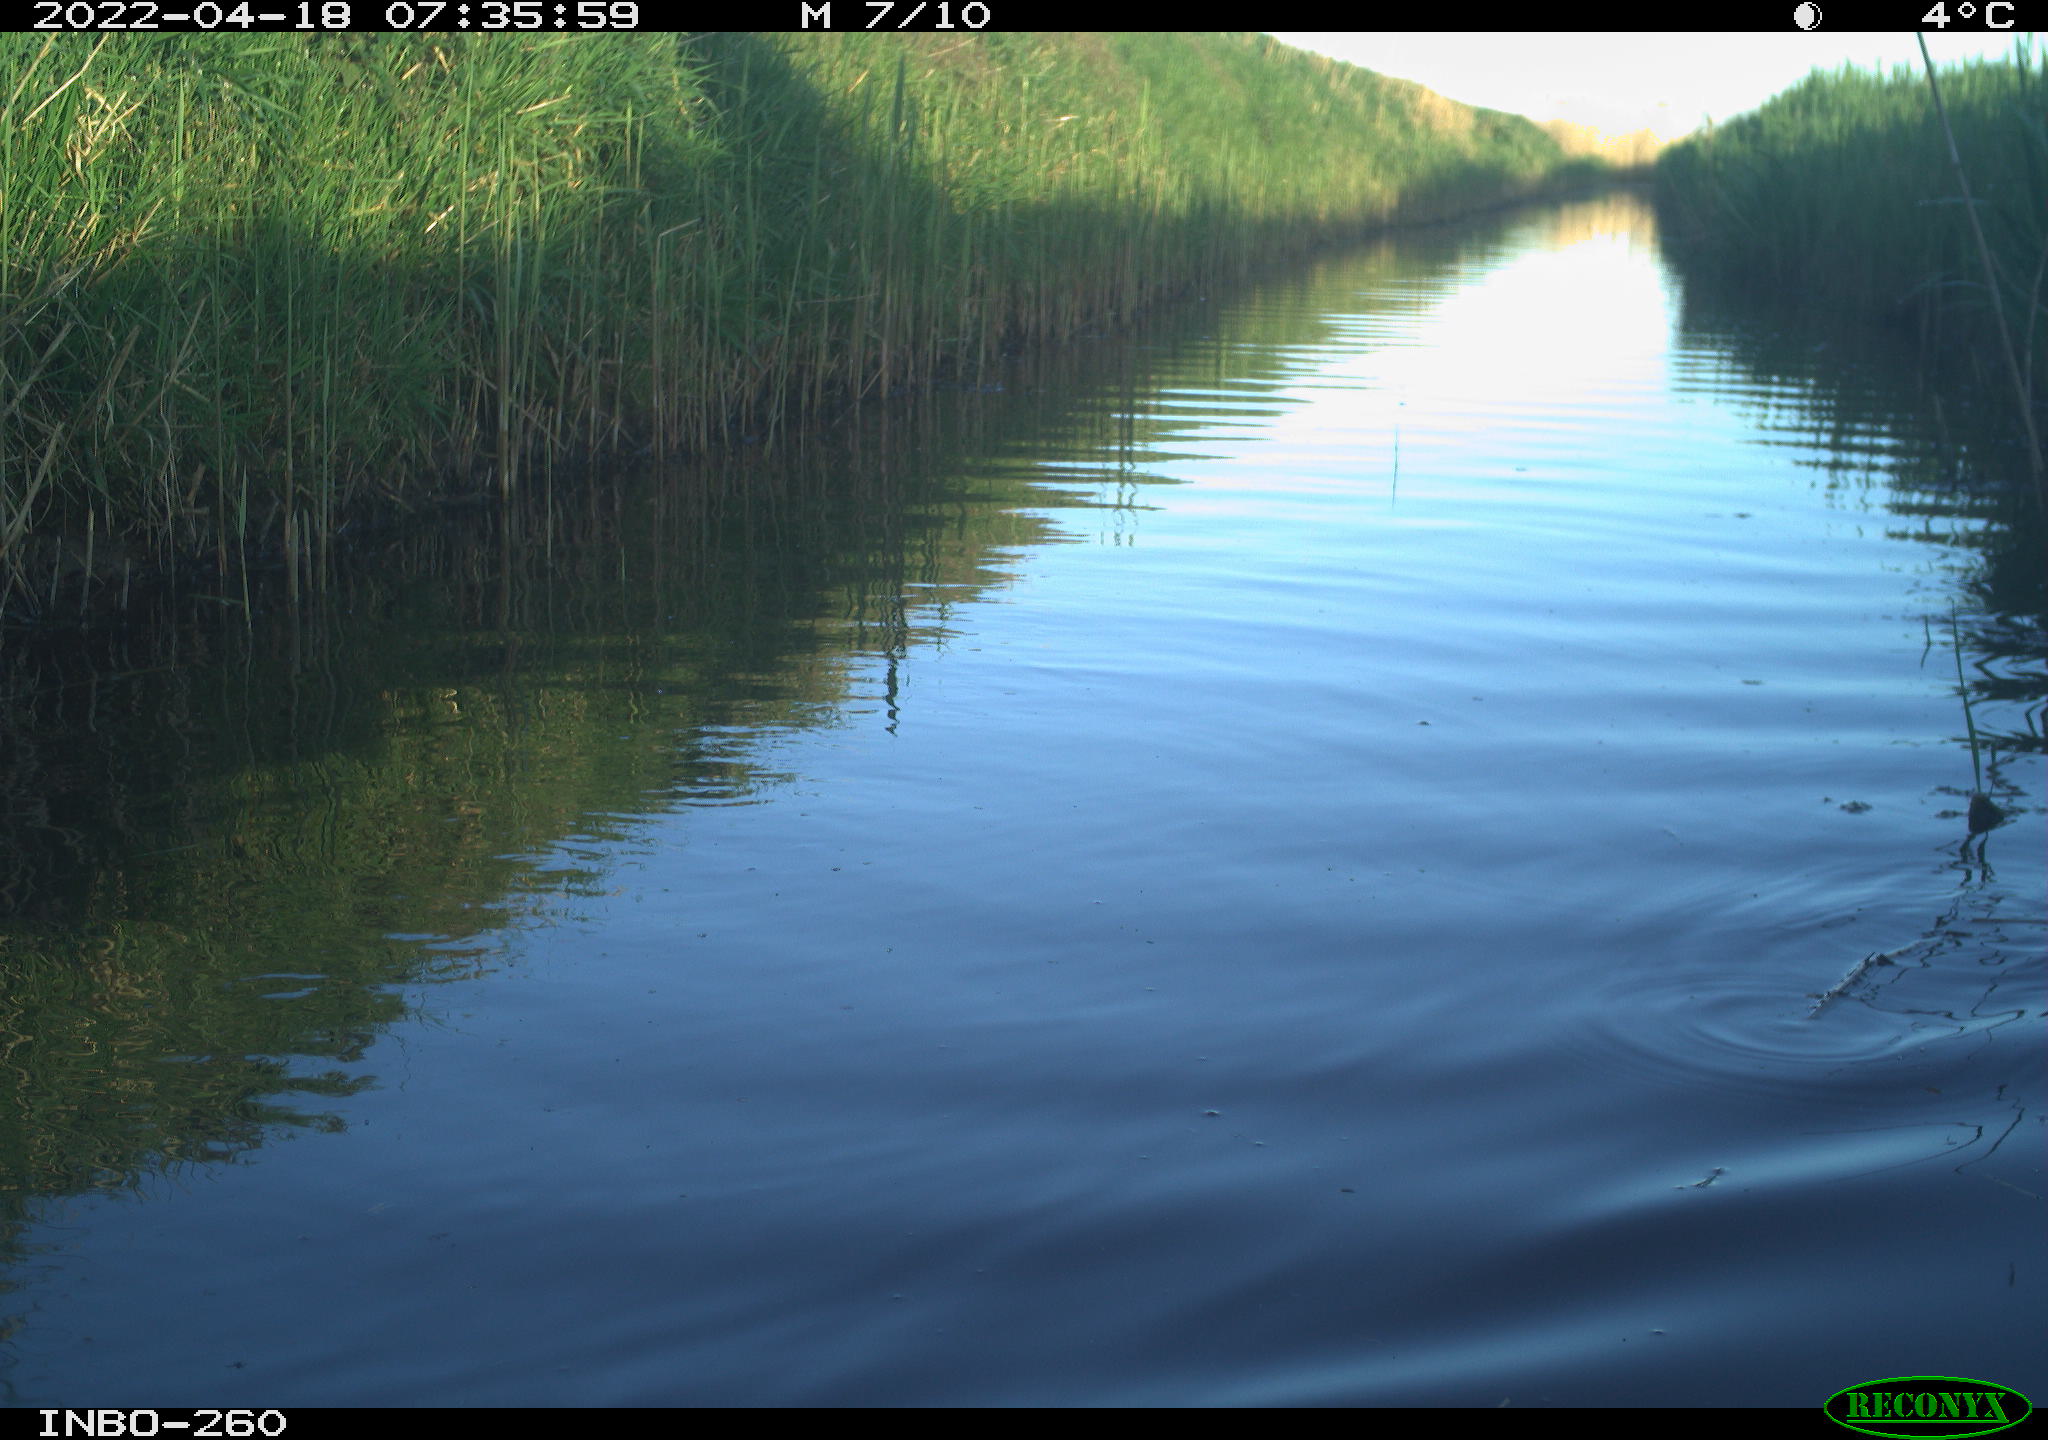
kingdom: Animalia
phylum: Chordata
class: Aves
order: Gruiformes
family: Rallidae
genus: Fulica
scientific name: Fulica atra
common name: Eurasian coot
